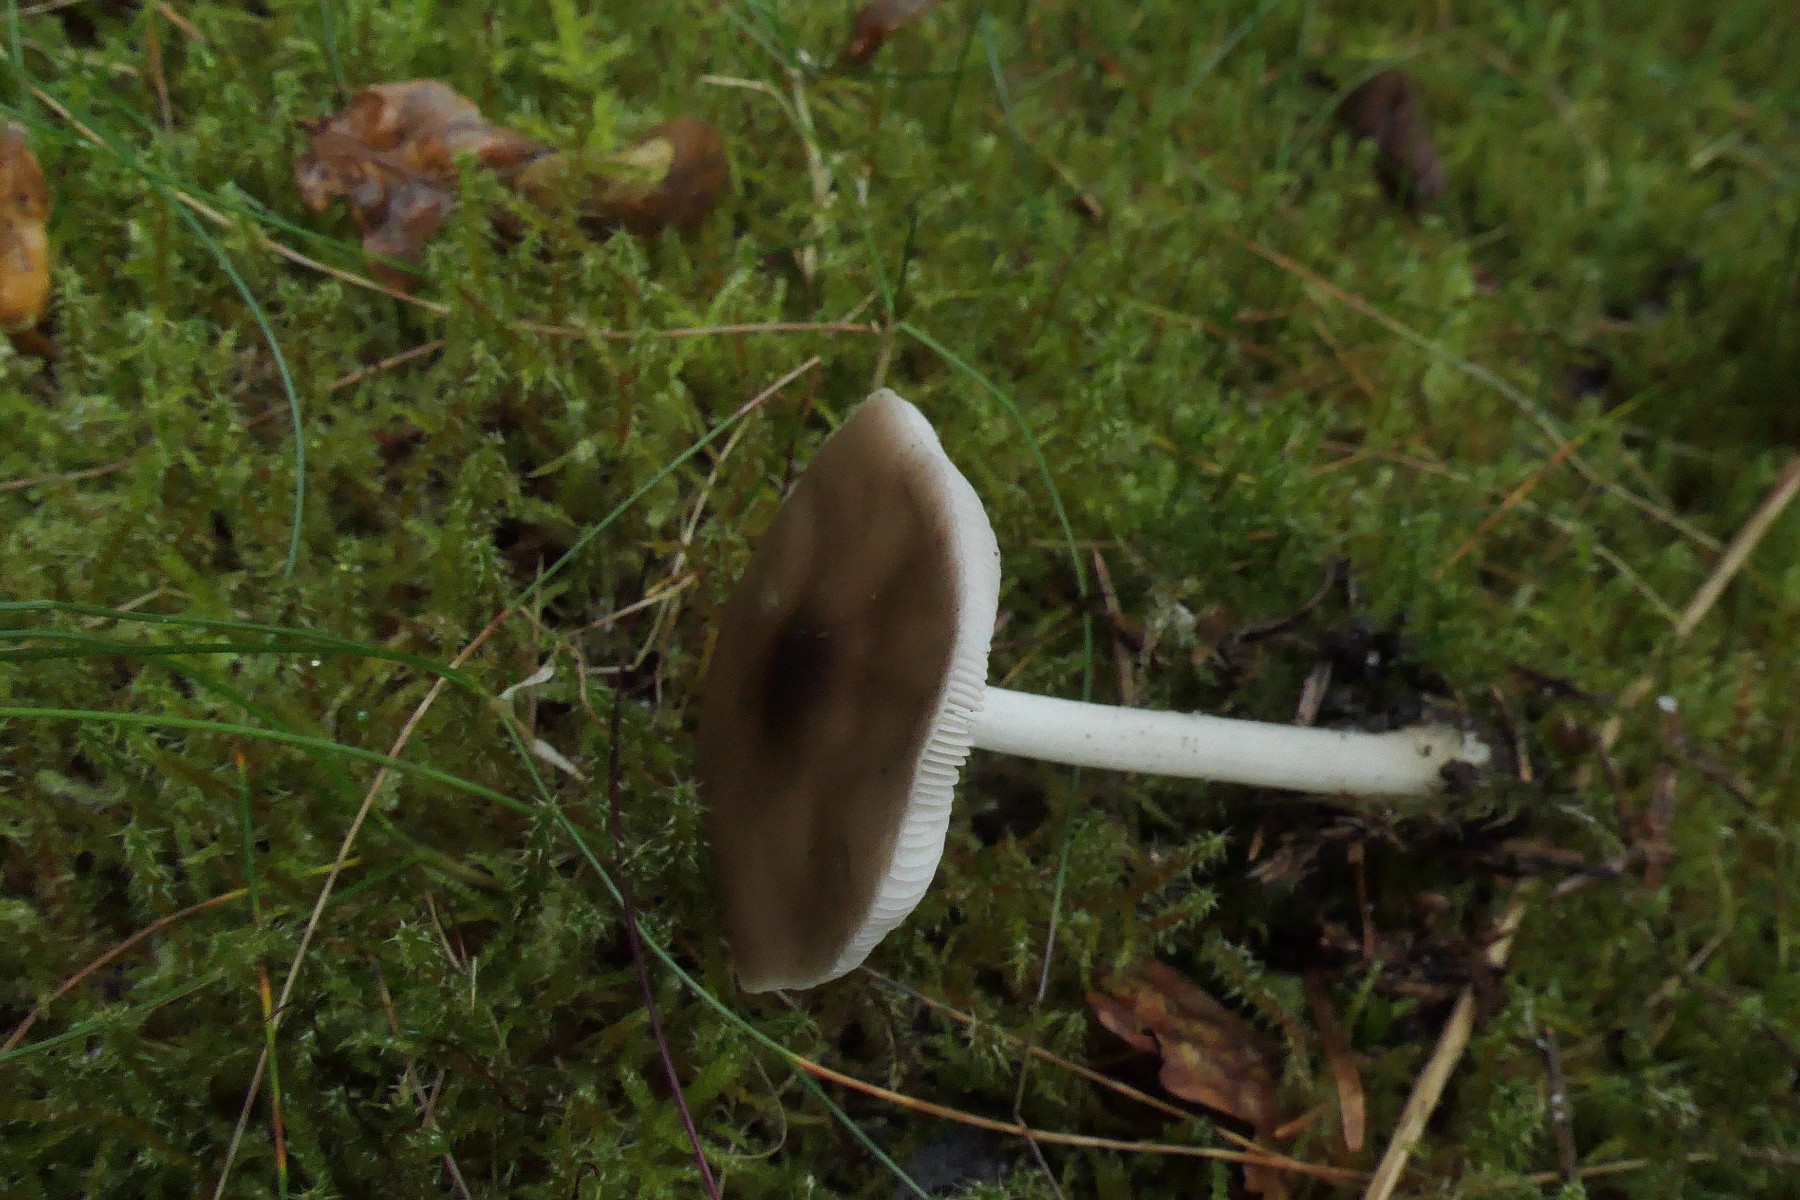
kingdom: Fungi
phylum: Basidiomycota
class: Agaricomycetes
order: Agaricales
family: Pluteaceae
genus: Pluteus
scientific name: Pluteus cervinus
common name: sodfarvet skærmhat
